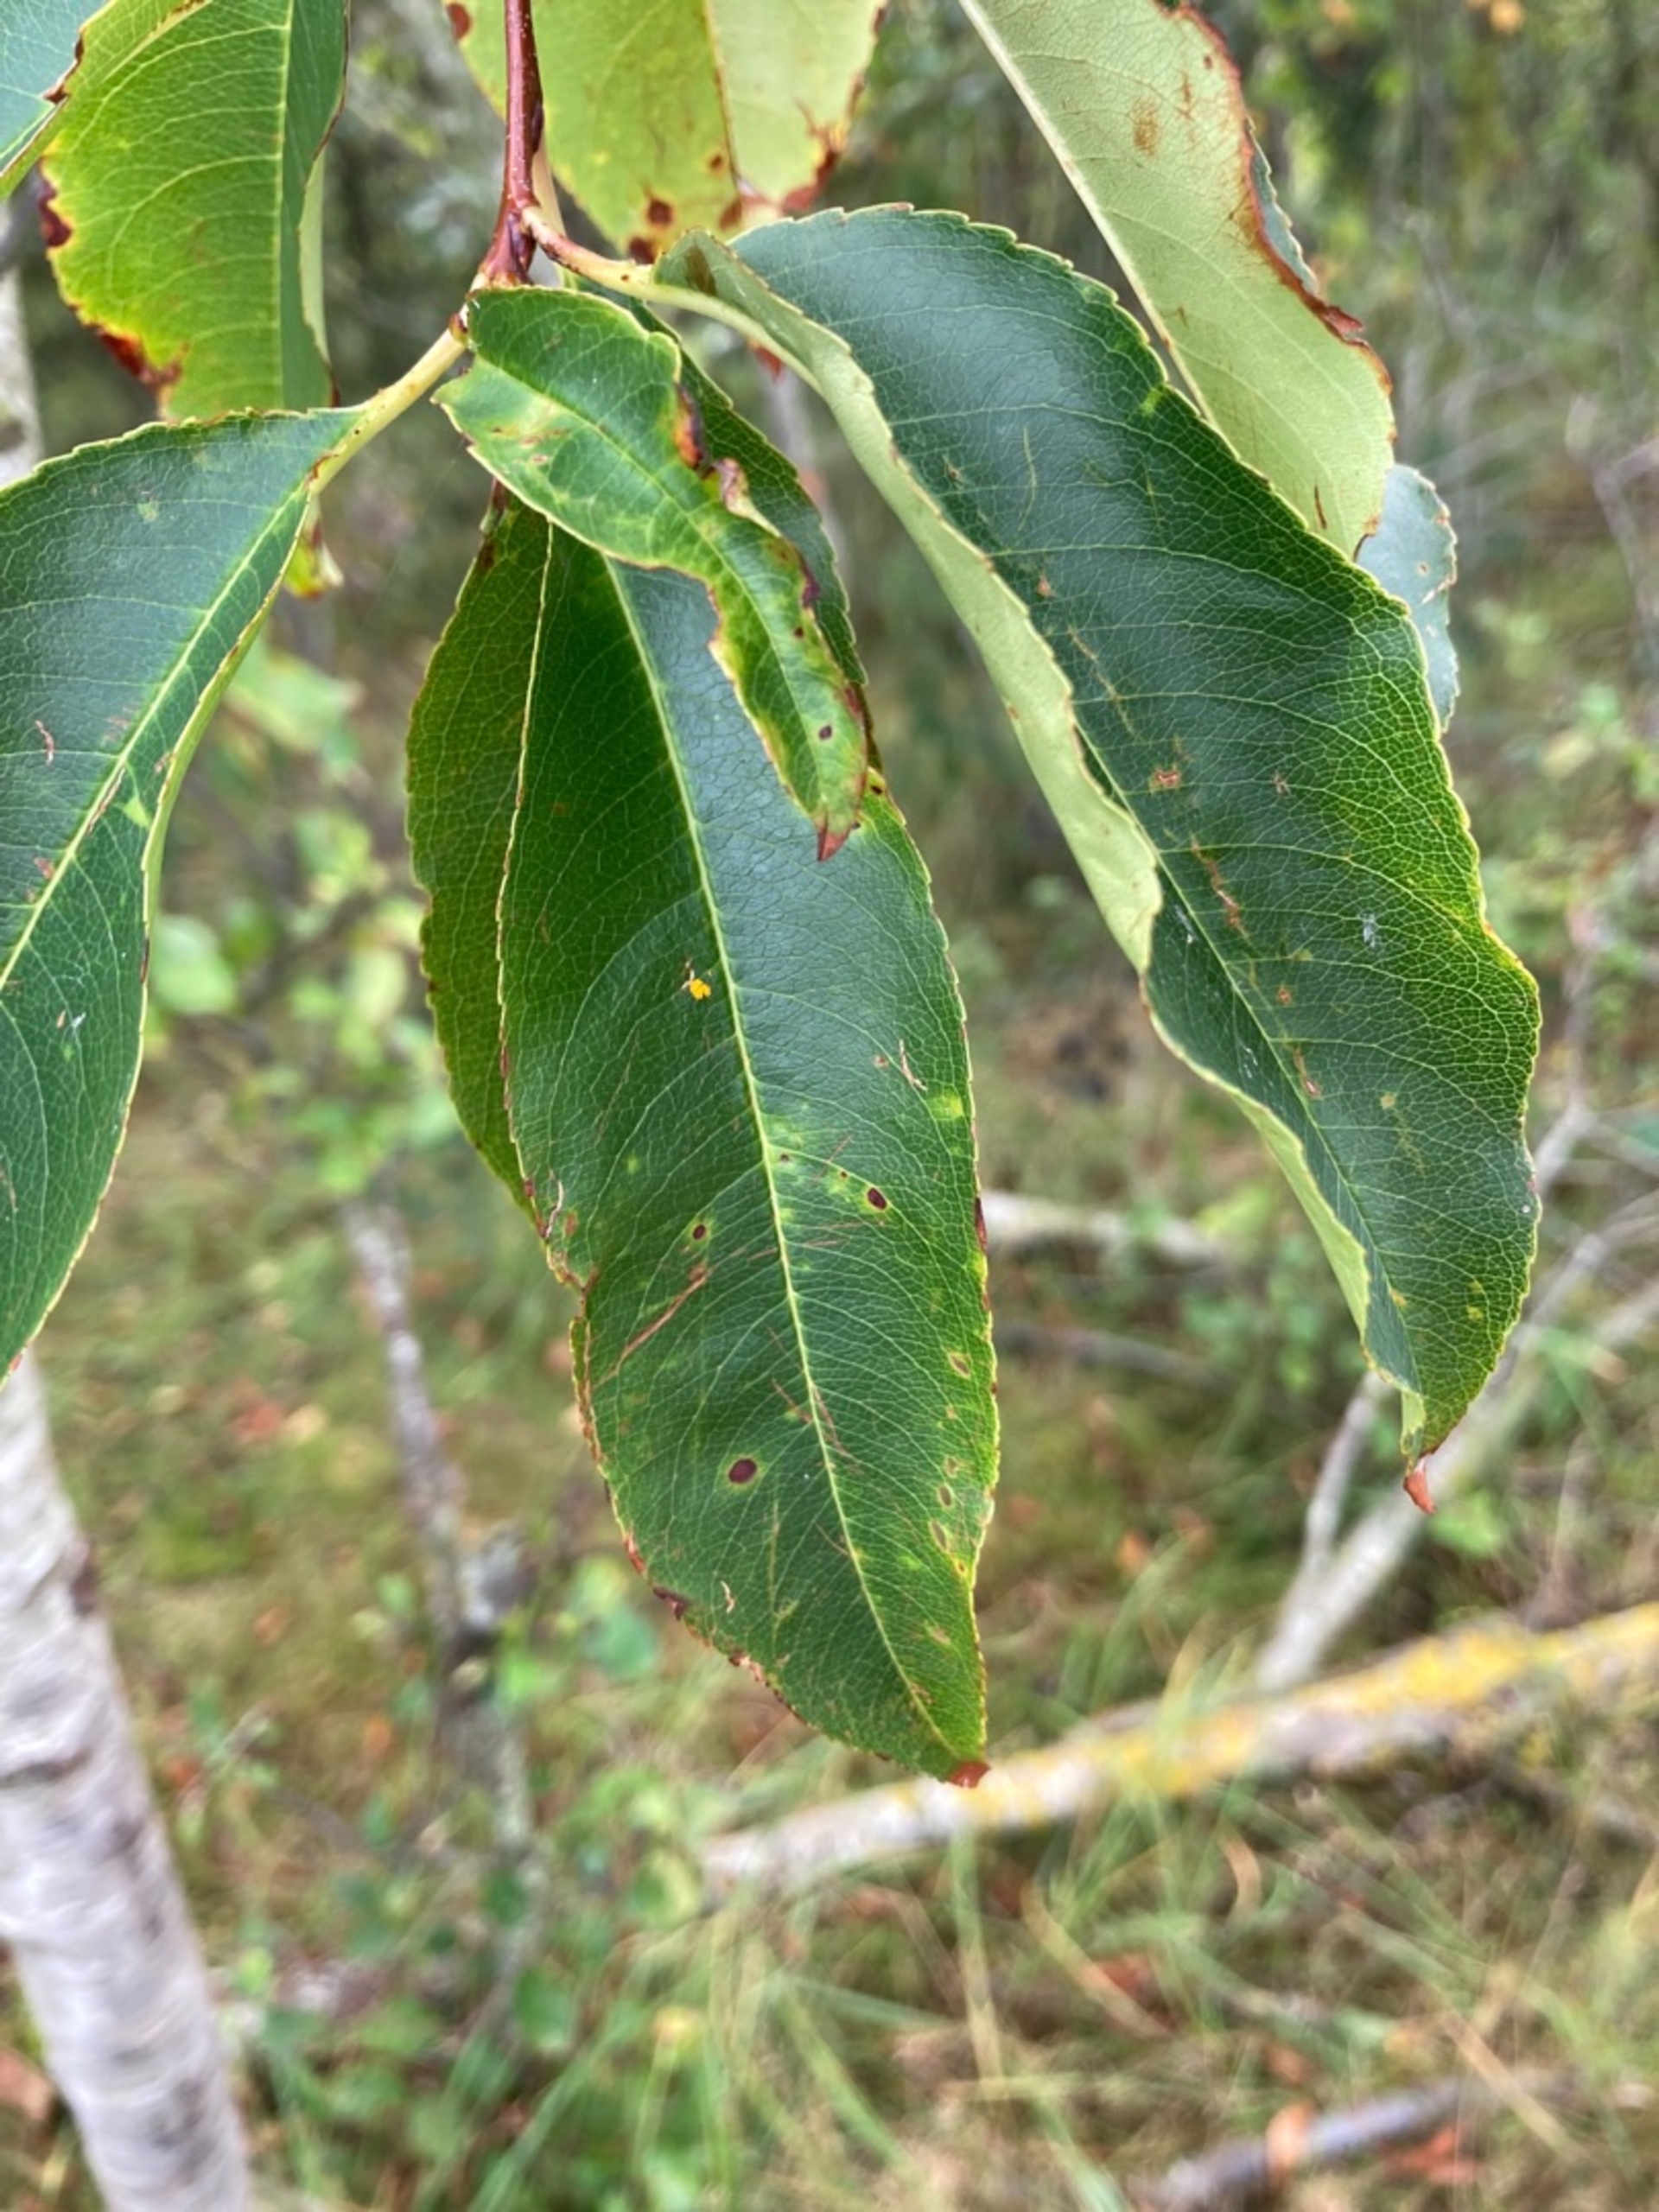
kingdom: Plantae
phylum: Tracheophyta
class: Magnoliopsida
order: Rosales
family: Rosaceae
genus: Prunus
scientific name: Prunus serotina
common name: Glansbladet hæg
